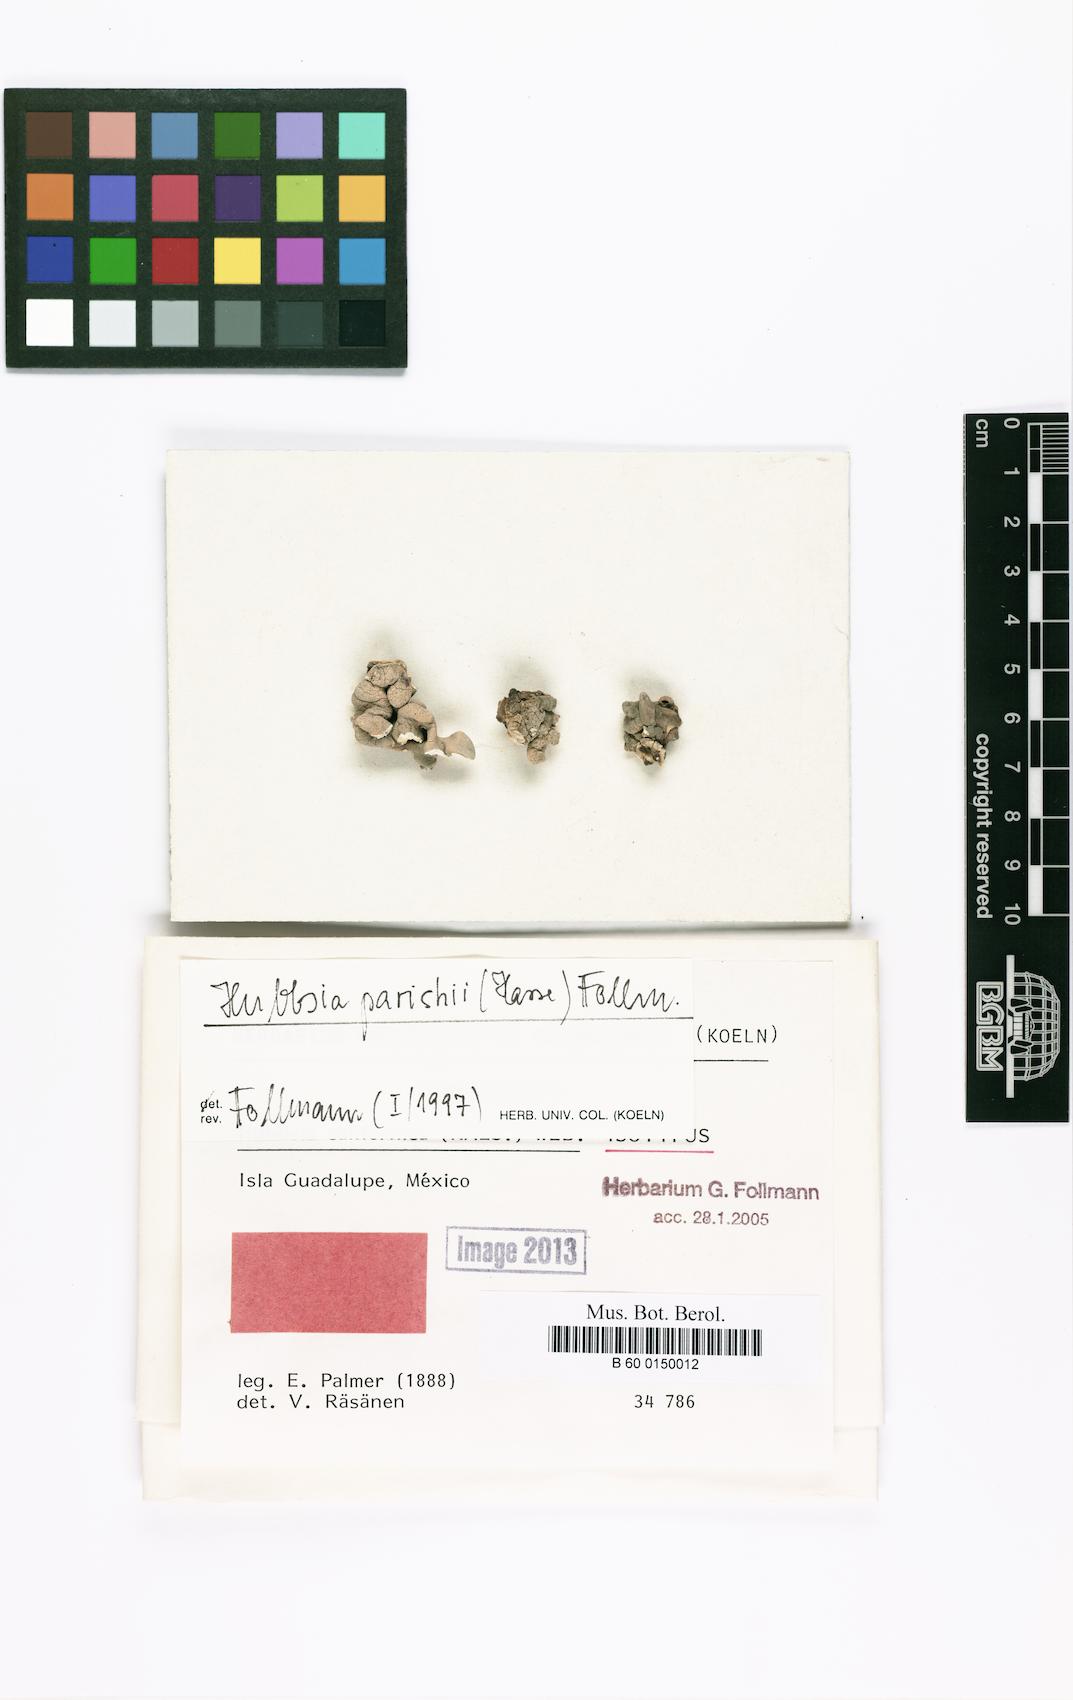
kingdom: Fungi
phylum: Ascomycota
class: Arthoniomycetes
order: Arthoniales
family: Roccellaceae
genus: Hubbsia
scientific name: Hubbsia californica
